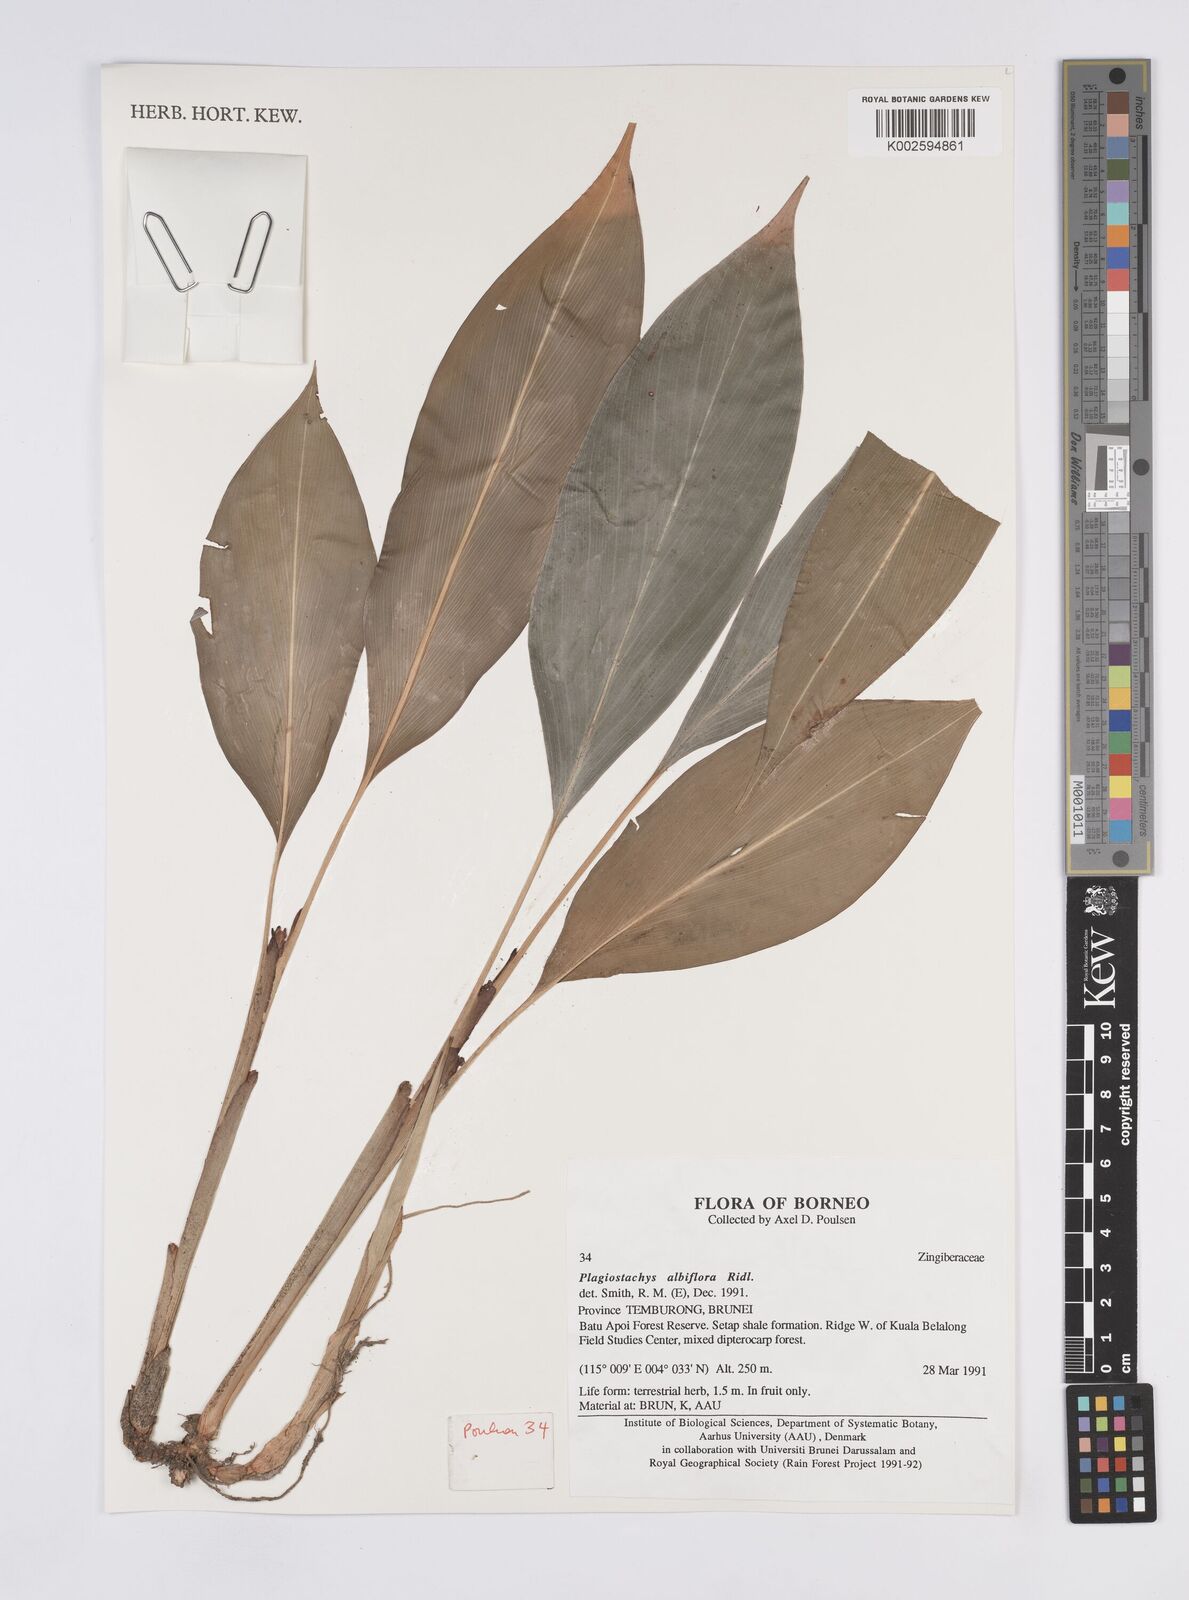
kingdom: Plantae
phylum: Tracheophyta
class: Liliopsida
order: Zingiberales
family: Zingiberaceae
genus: Plagiostachys
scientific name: Plagiostachys albiflora
